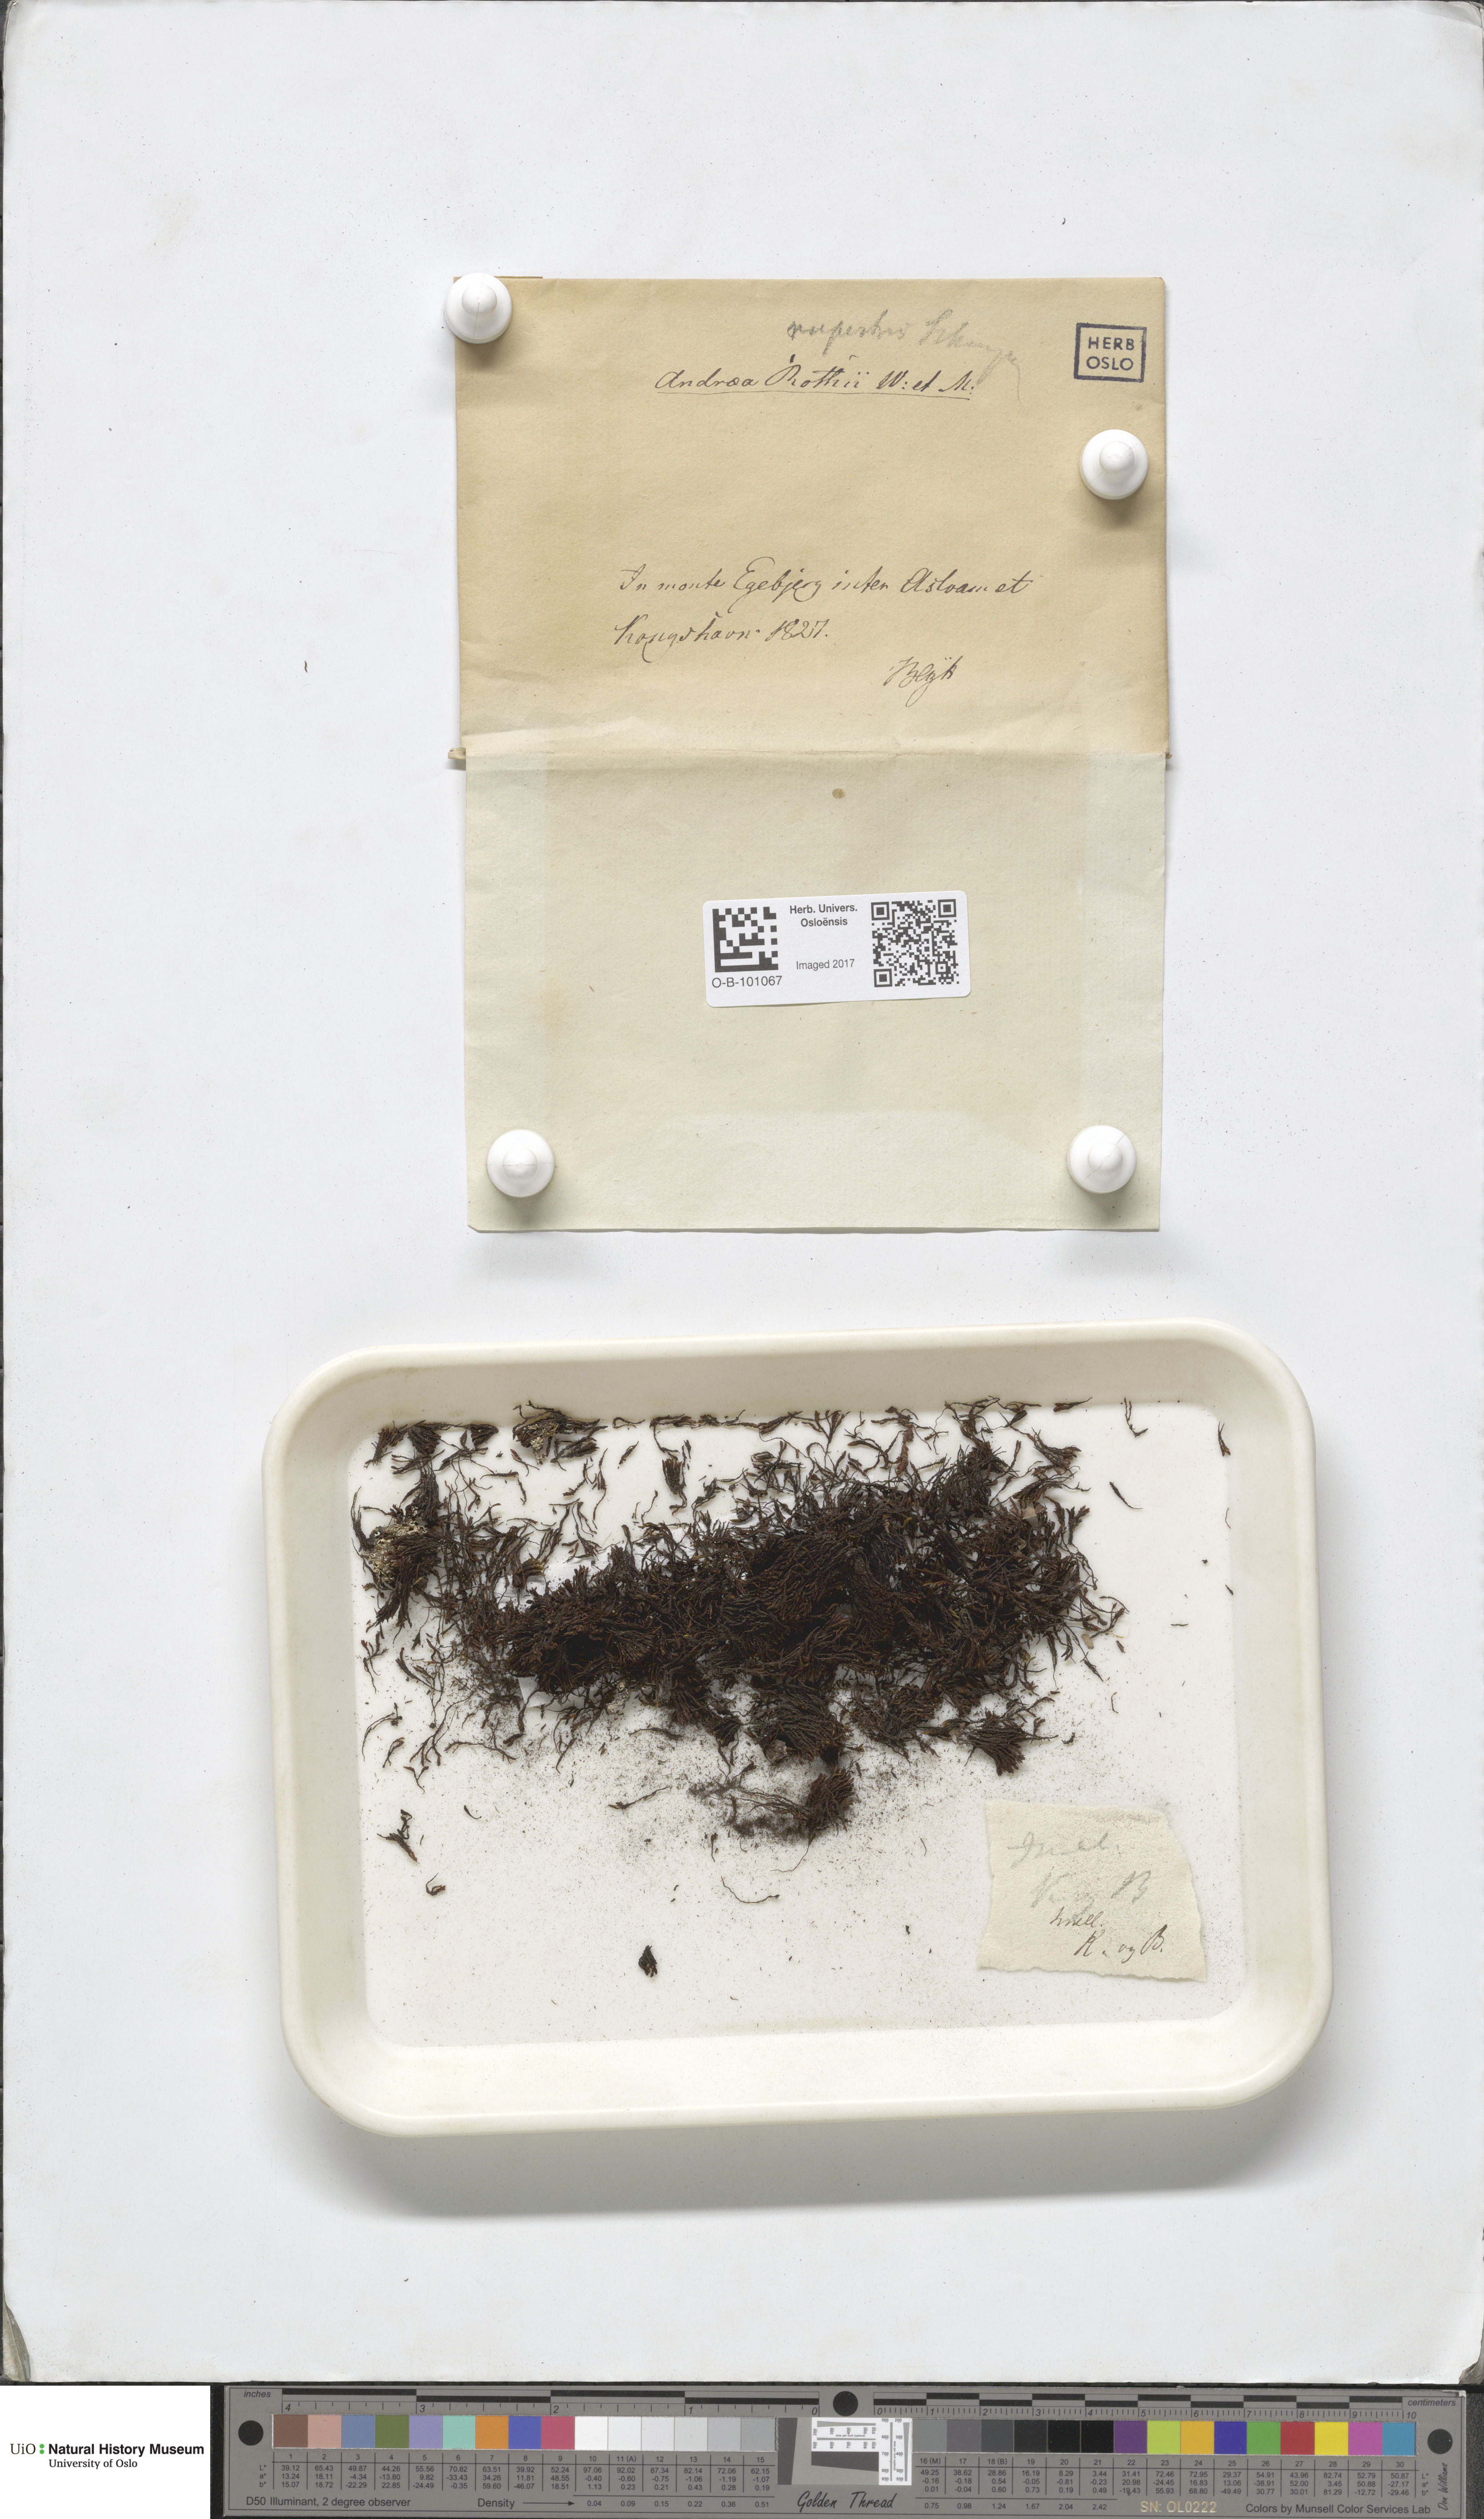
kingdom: Plantae
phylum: Bryophyta
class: Andreaeopsida
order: Andreaeales
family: Andreaeaceae
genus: Andreaea
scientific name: Andreaea rupestris
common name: Black rock moss
